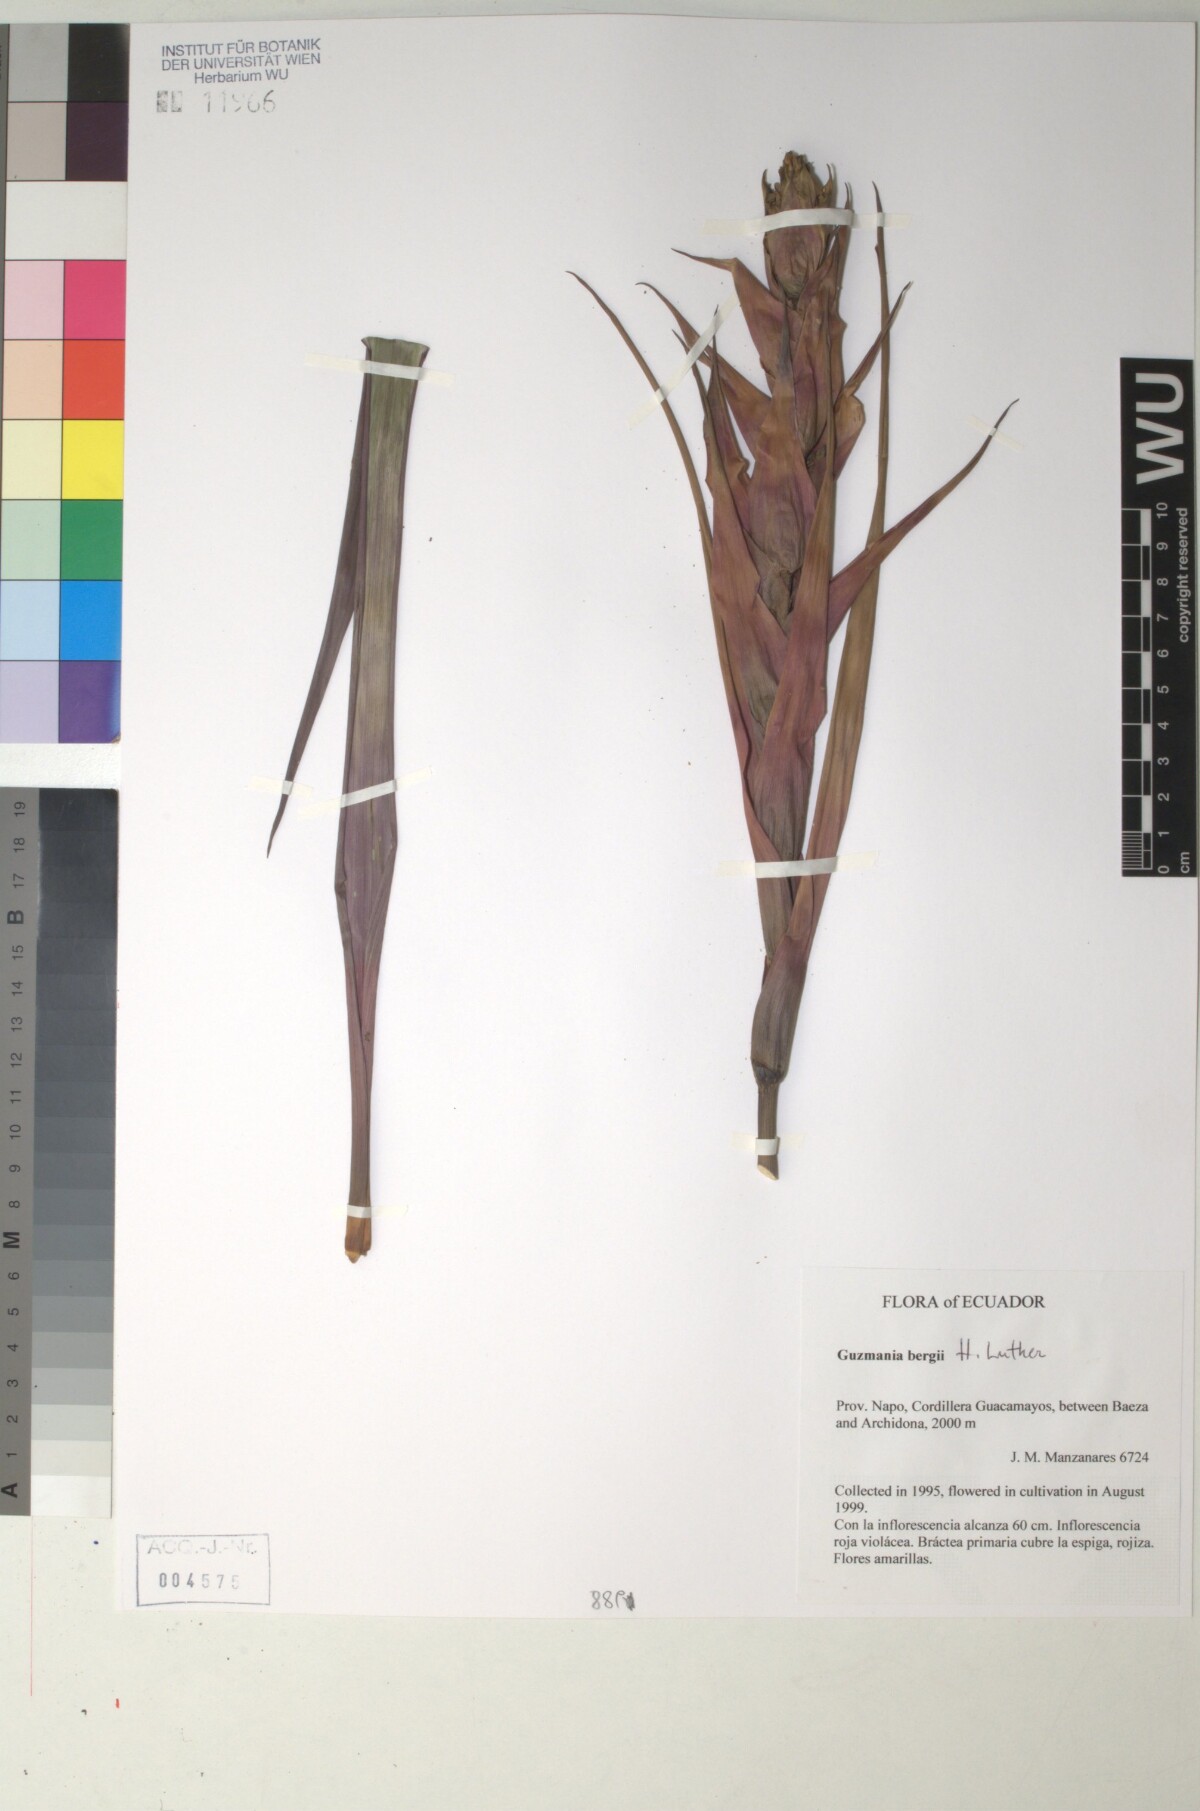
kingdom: Plantae
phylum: Tracheophyta
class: Liliopsida
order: Poales
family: Bromeliaceae
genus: Guzmania
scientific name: Guzmania bergii
